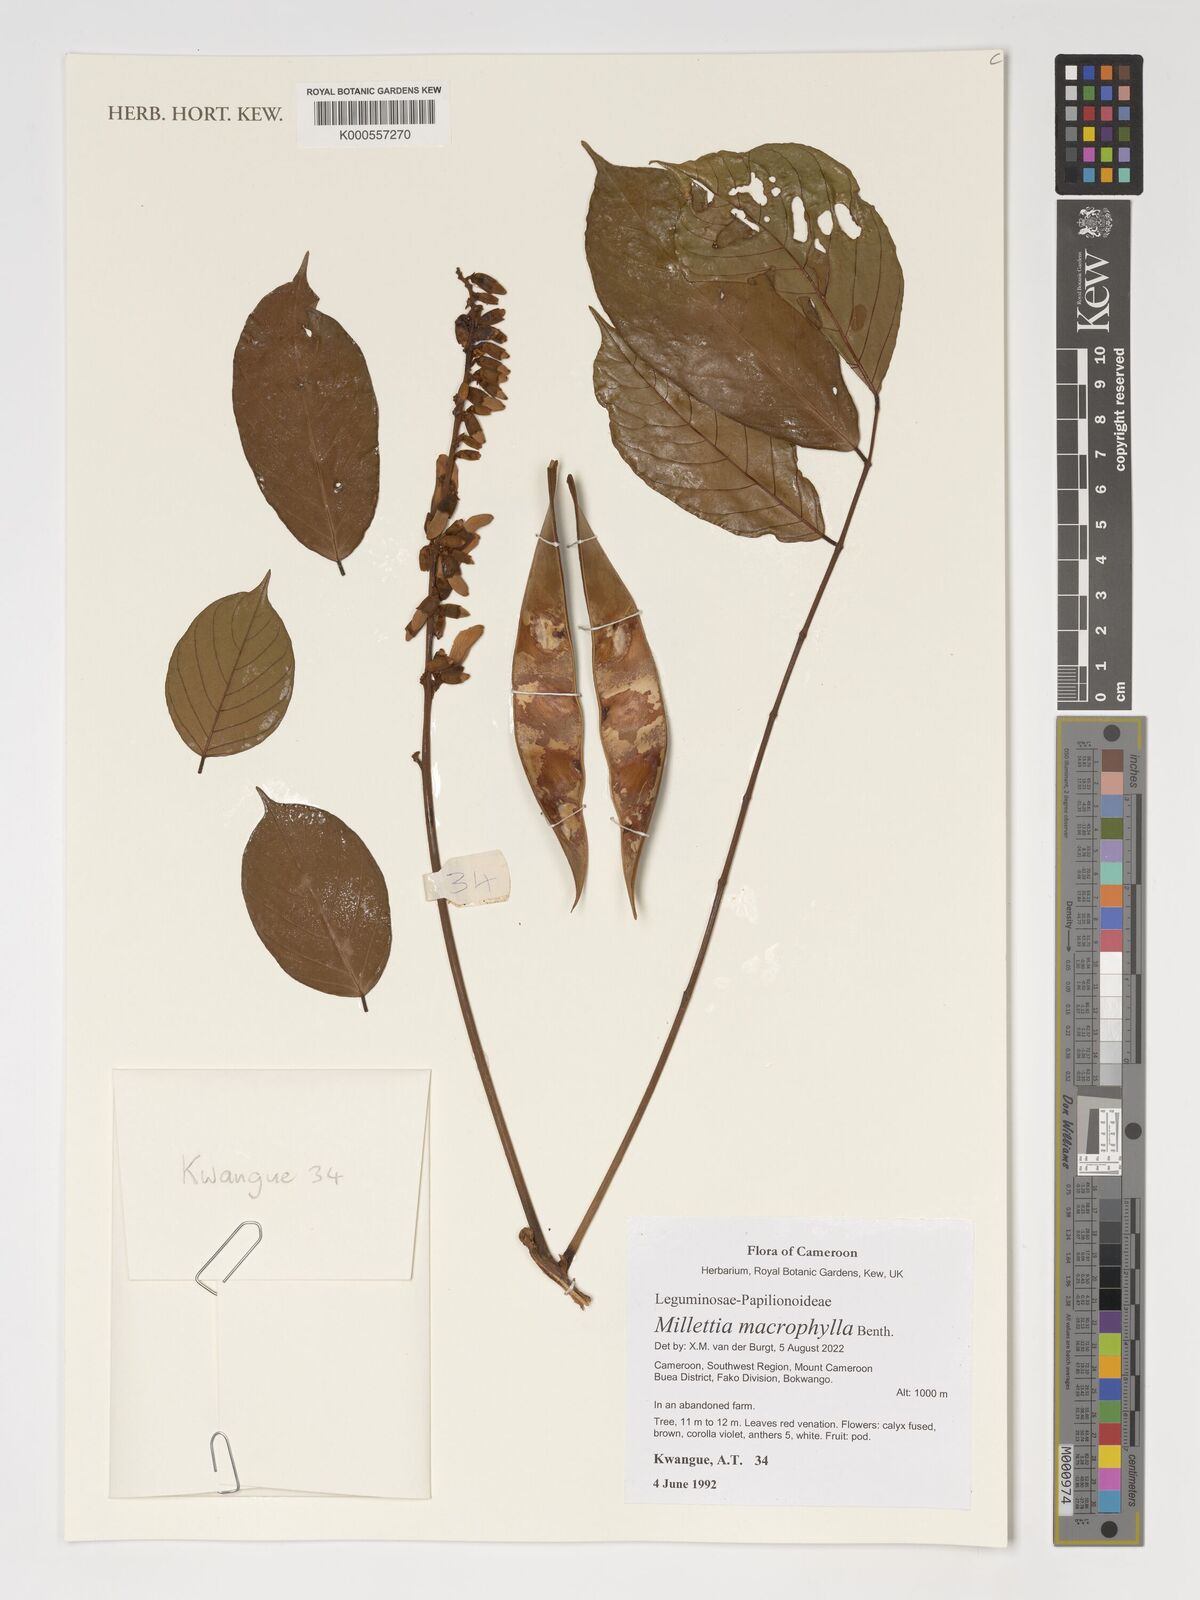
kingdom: Plantae
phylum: Tracheophyta
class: Magnoliopsida
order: Fabales
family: Fabaceae
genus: Millettia
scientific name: Millettia macrophylla
